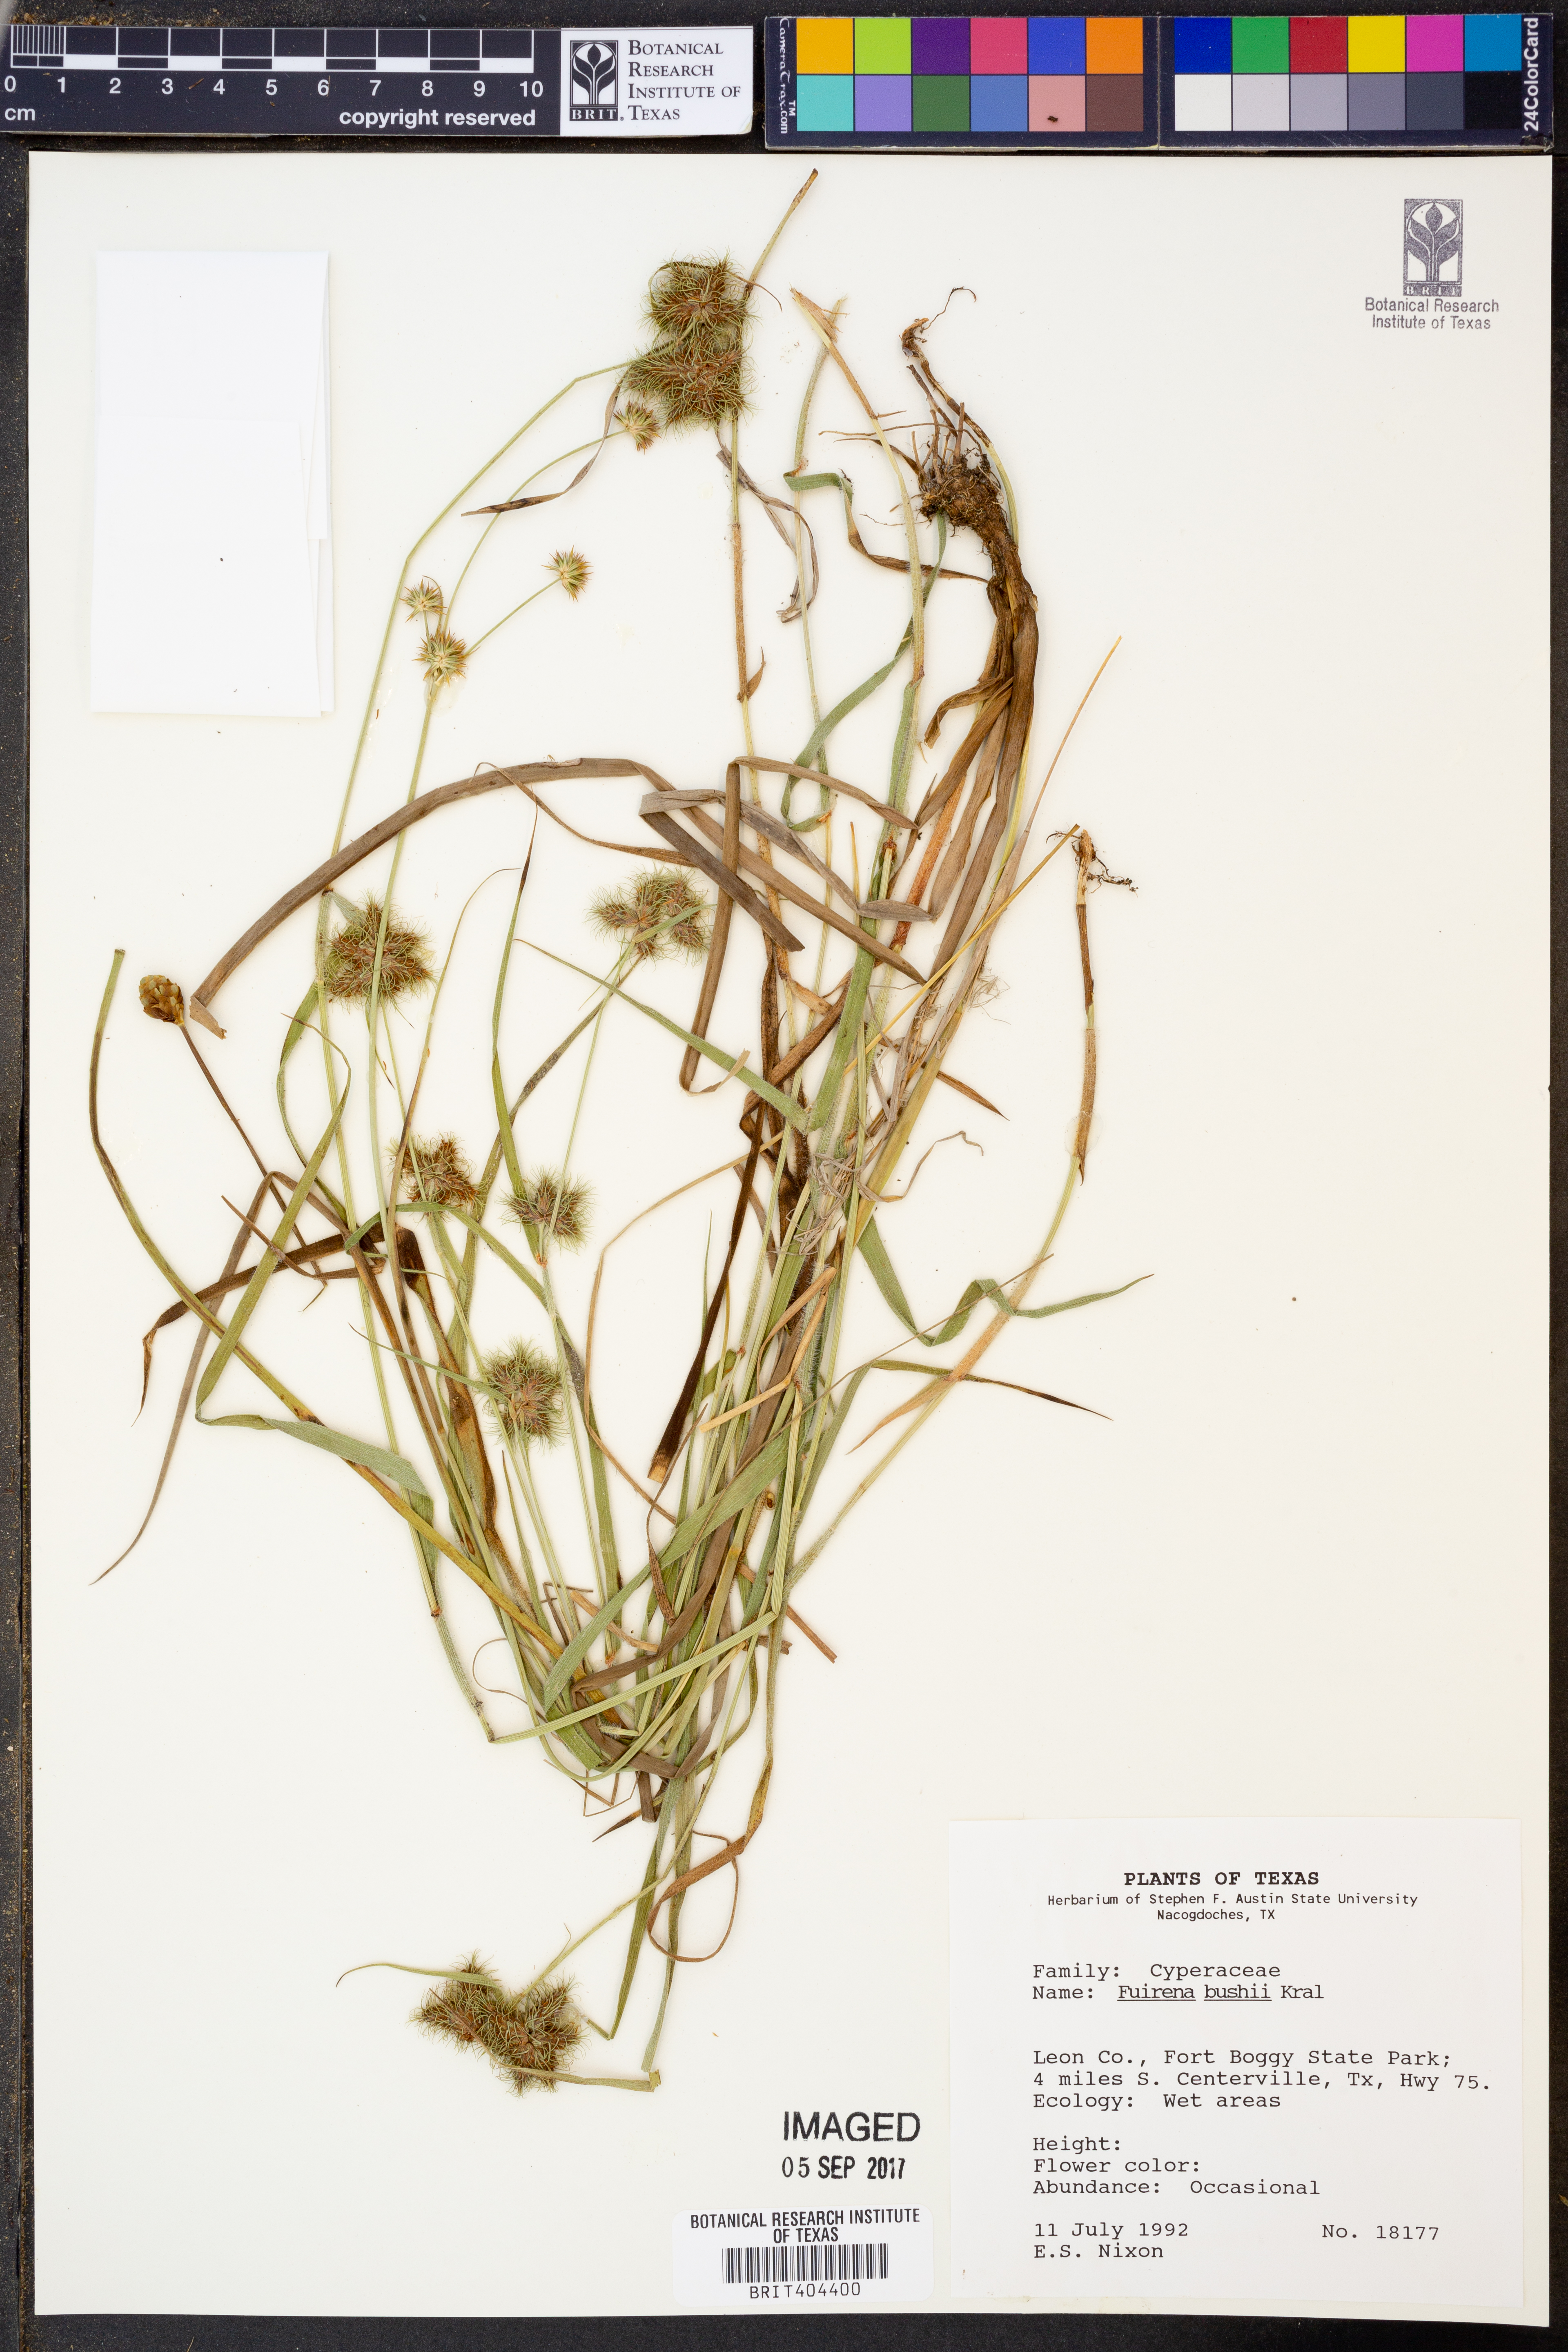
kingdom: Plantae
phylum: Tracheophyta
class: Liliopsida
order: Poales
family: Cyperaceae
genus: Fuirena
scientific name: Fuirena bushii
